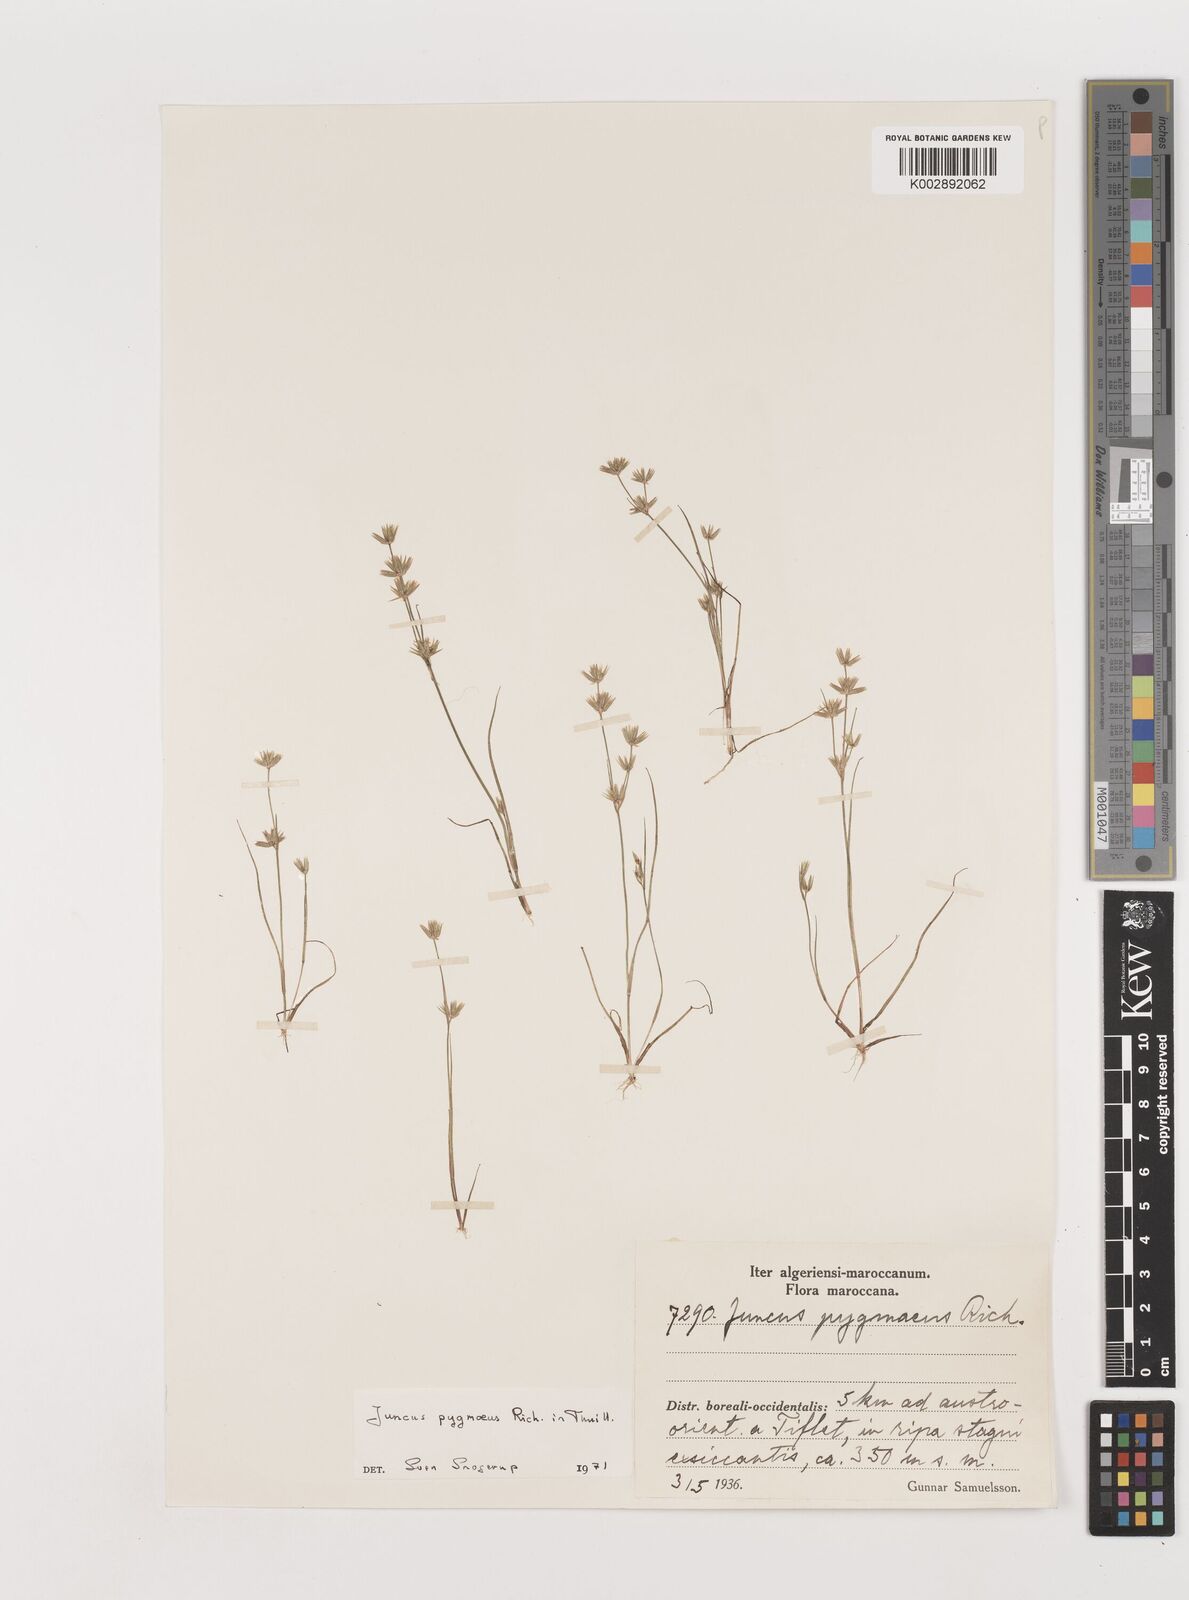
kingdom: Plantae
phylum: Tracheophyta
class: Liliopsida
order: Poales
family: Juncaceae
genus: Juncus
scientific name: Juncus pygmaeus
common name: Pigmy rush
